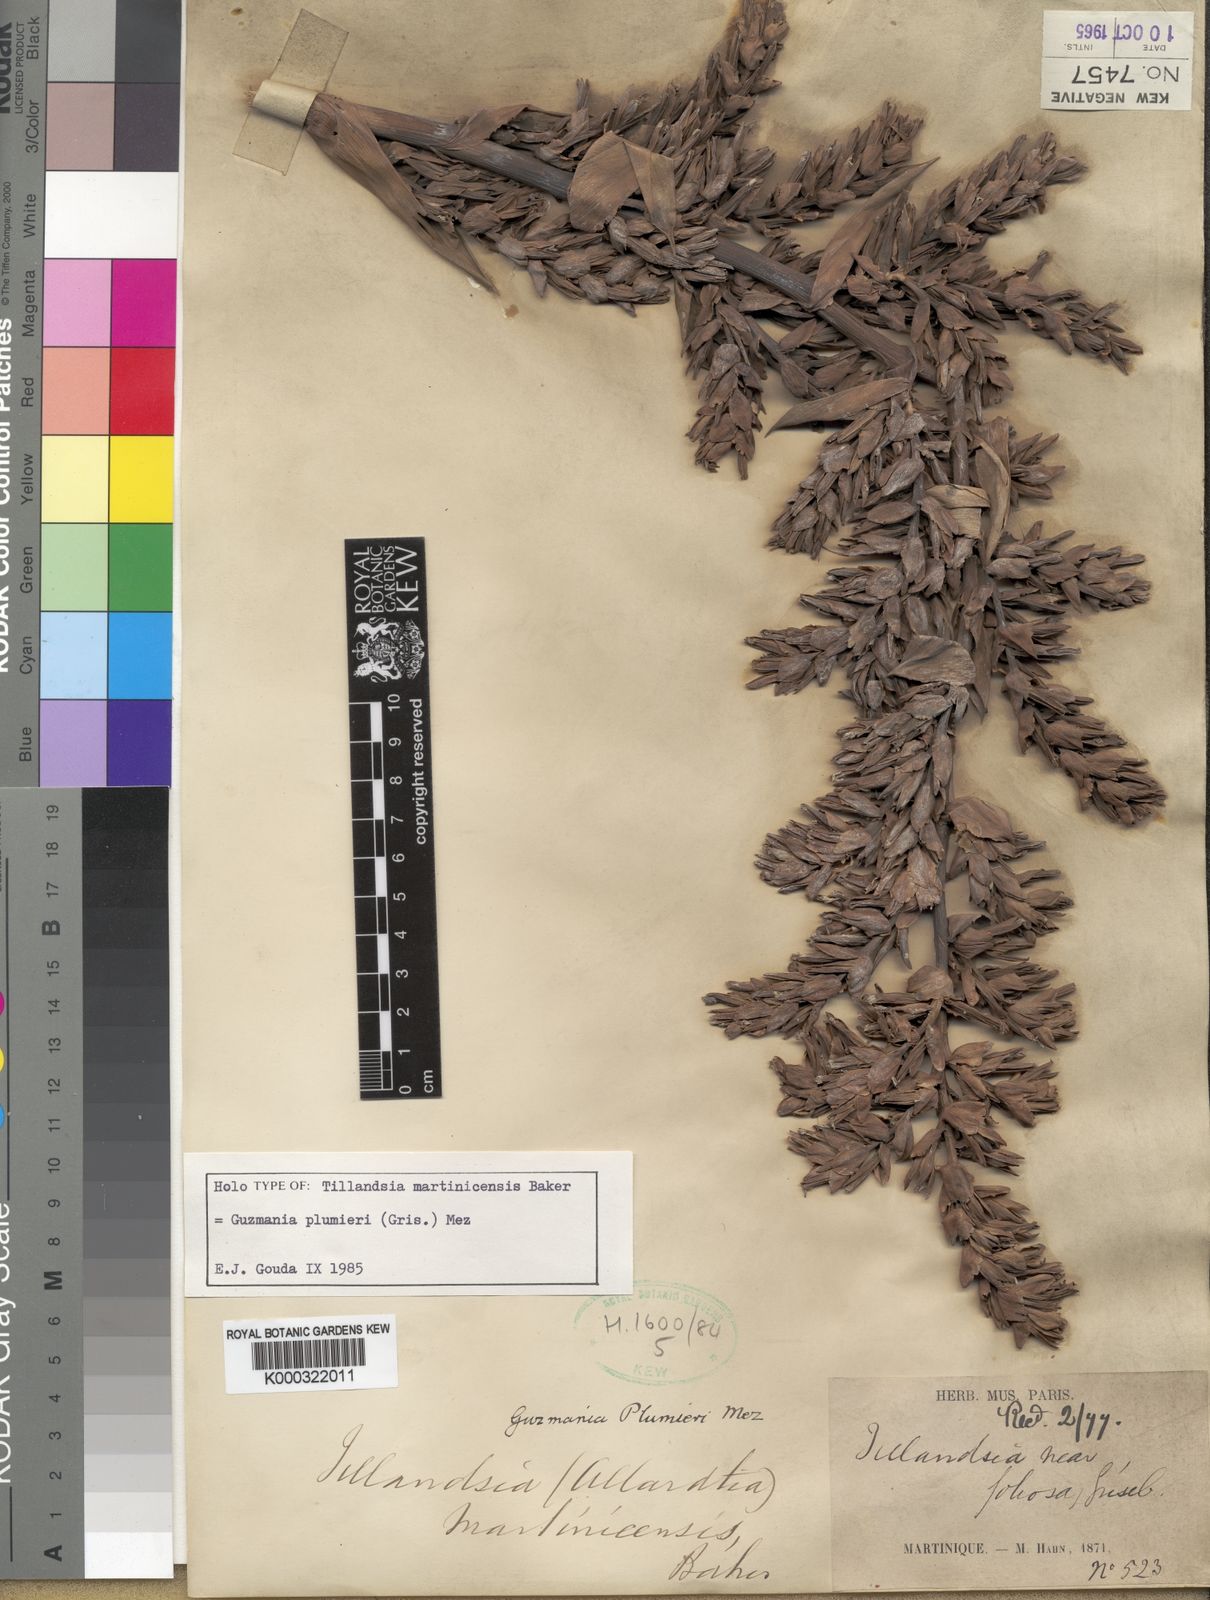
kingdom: Plantae
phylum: Tracheophyta
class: Liliopsida
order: Poales
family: Bromeliaceae
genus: Guzmania
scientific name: Guzmania plumieri
